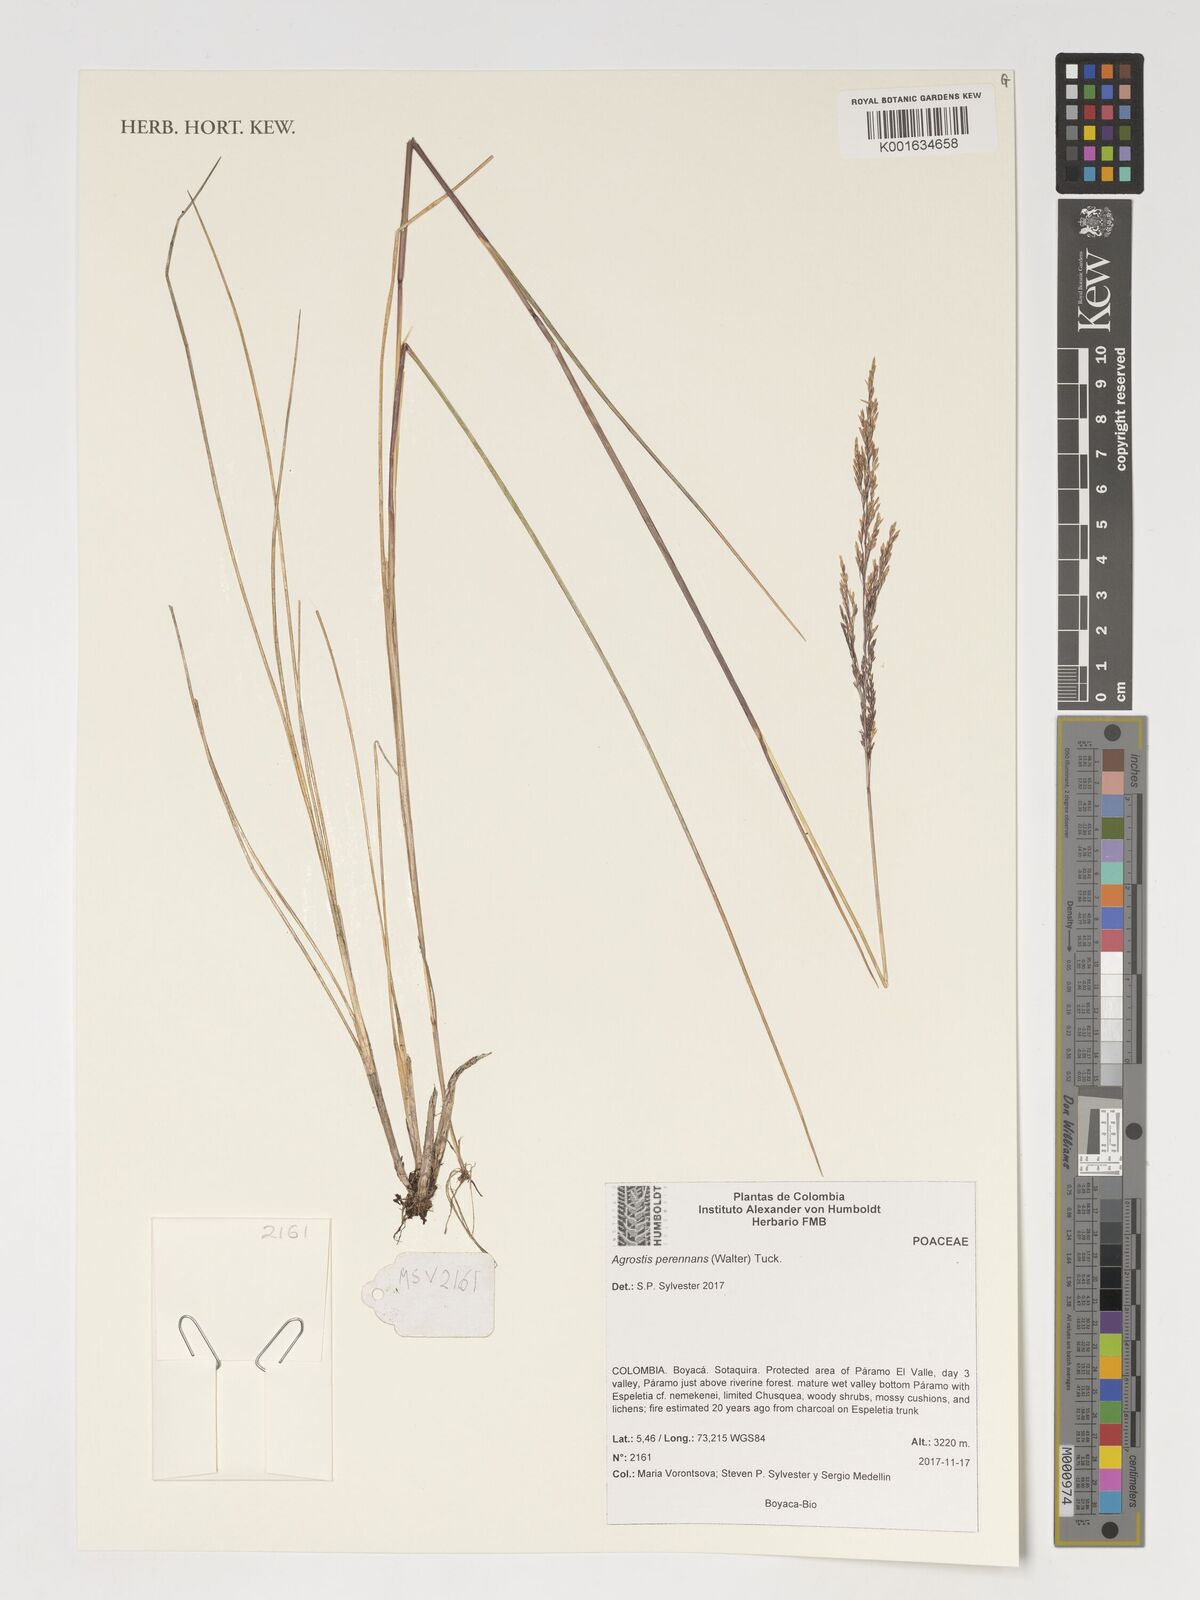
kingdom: Plantae
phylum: Tracheophyta
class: Liliopsida
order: Poales
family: Poaceae
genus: Agrostis
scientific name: Agrostis perennans
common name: Autumn bent
